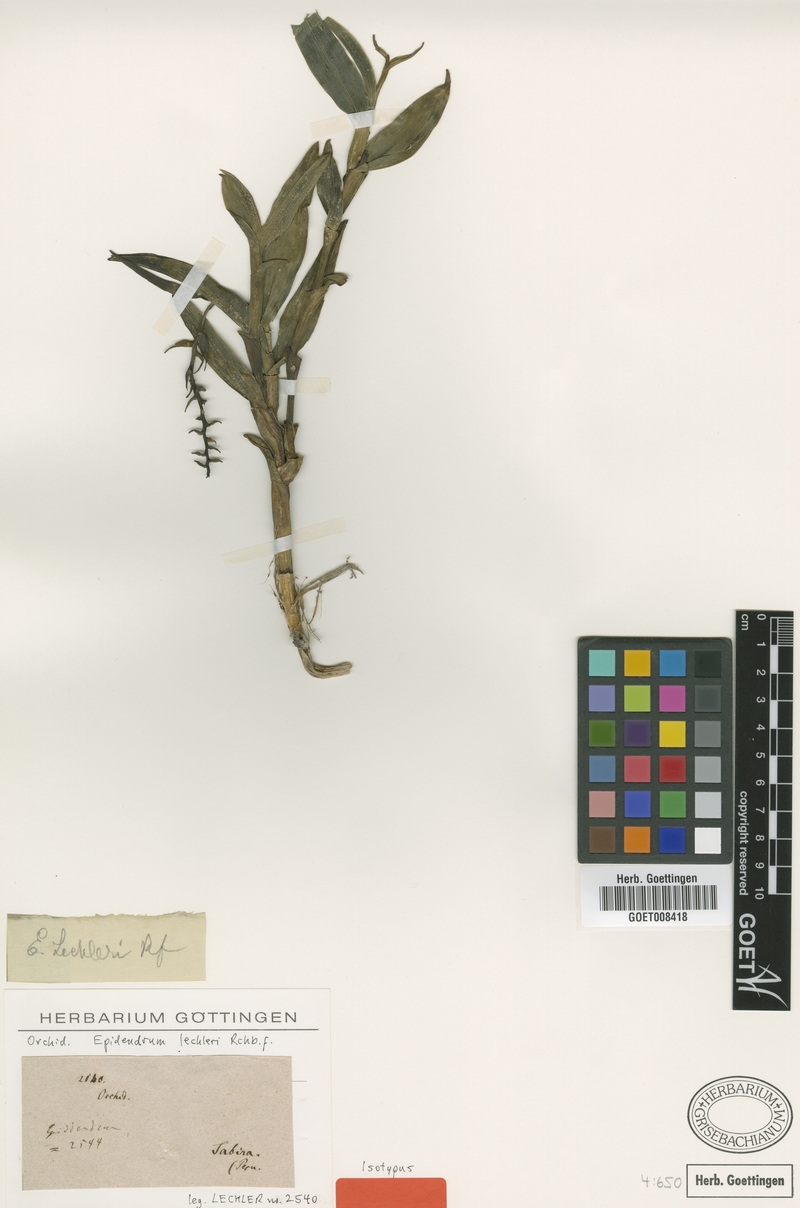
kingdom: Plantae
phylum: Tracheophyta
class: Liliopsida
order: Asparagales
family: Orchidaceae
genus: Epidendrum
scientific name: Epidendrum lechleri
